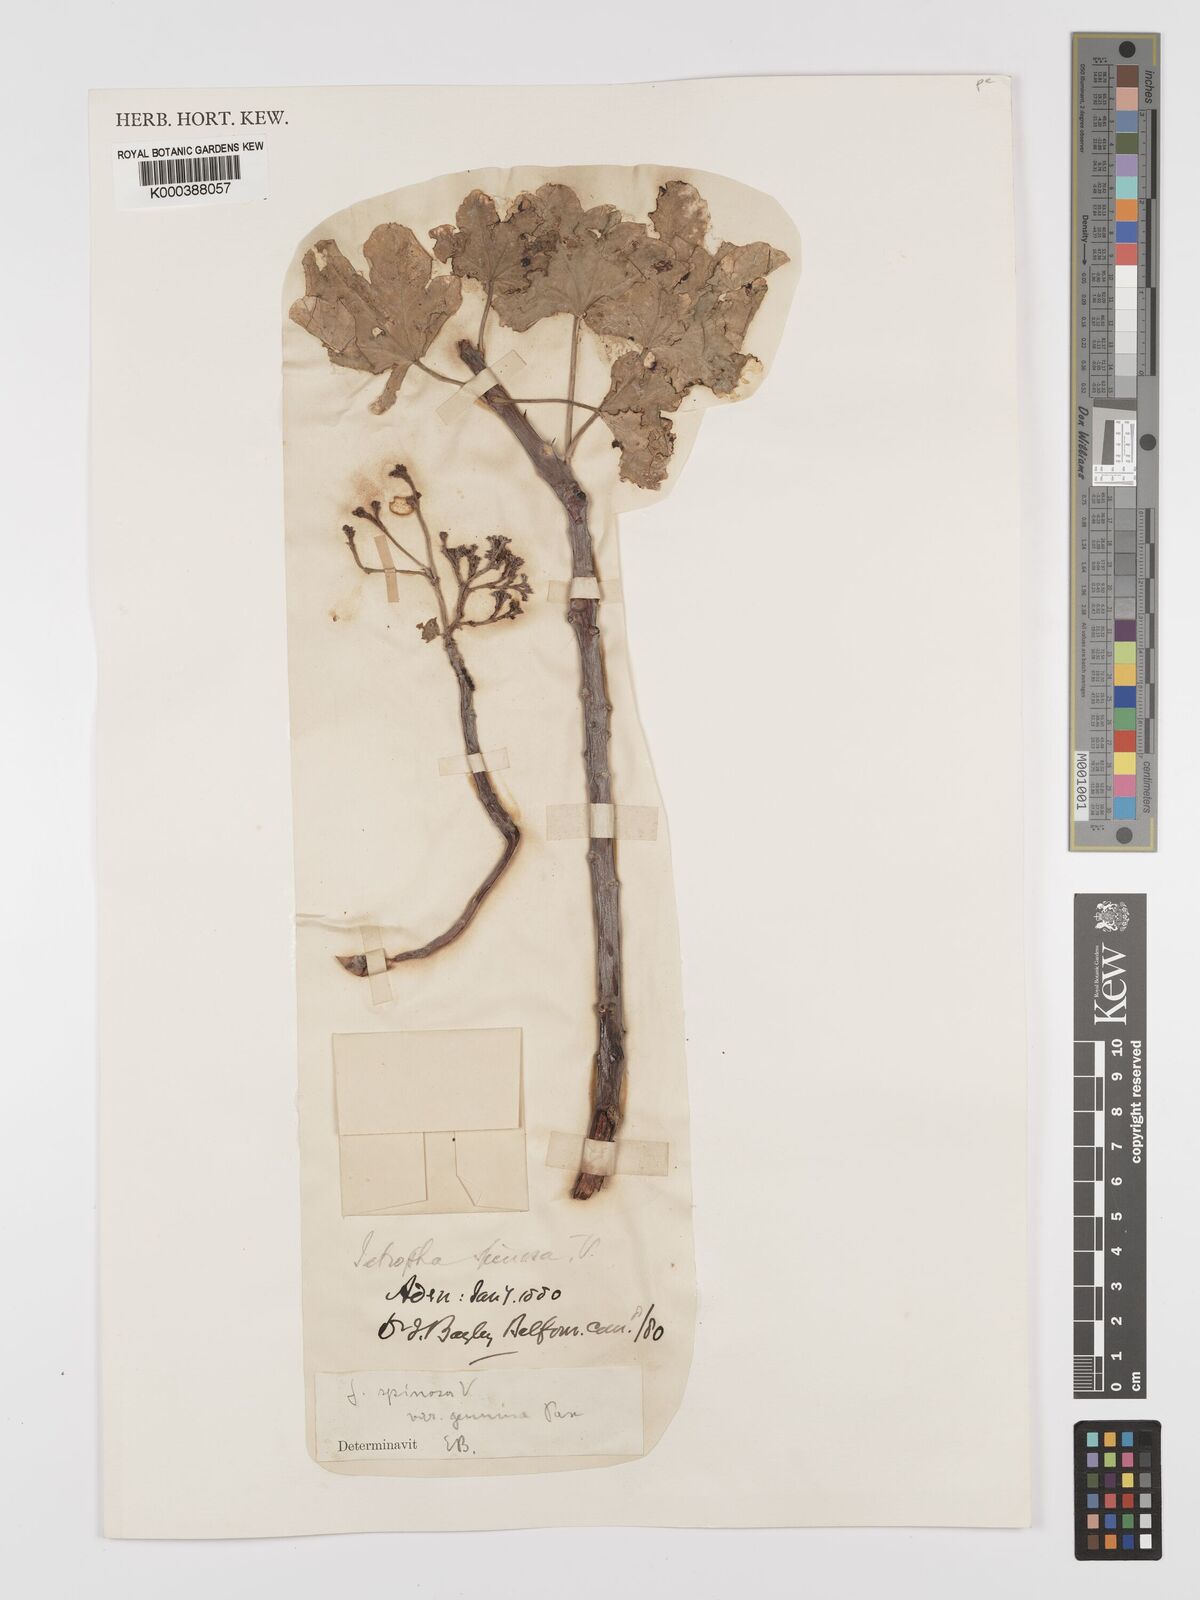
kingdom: Plantae
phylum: Tracheophyta
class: Magnoliopsida
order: Malpighiales
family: Euphorbiaceae
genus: Jatropha
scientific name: Jatropha spinosa
